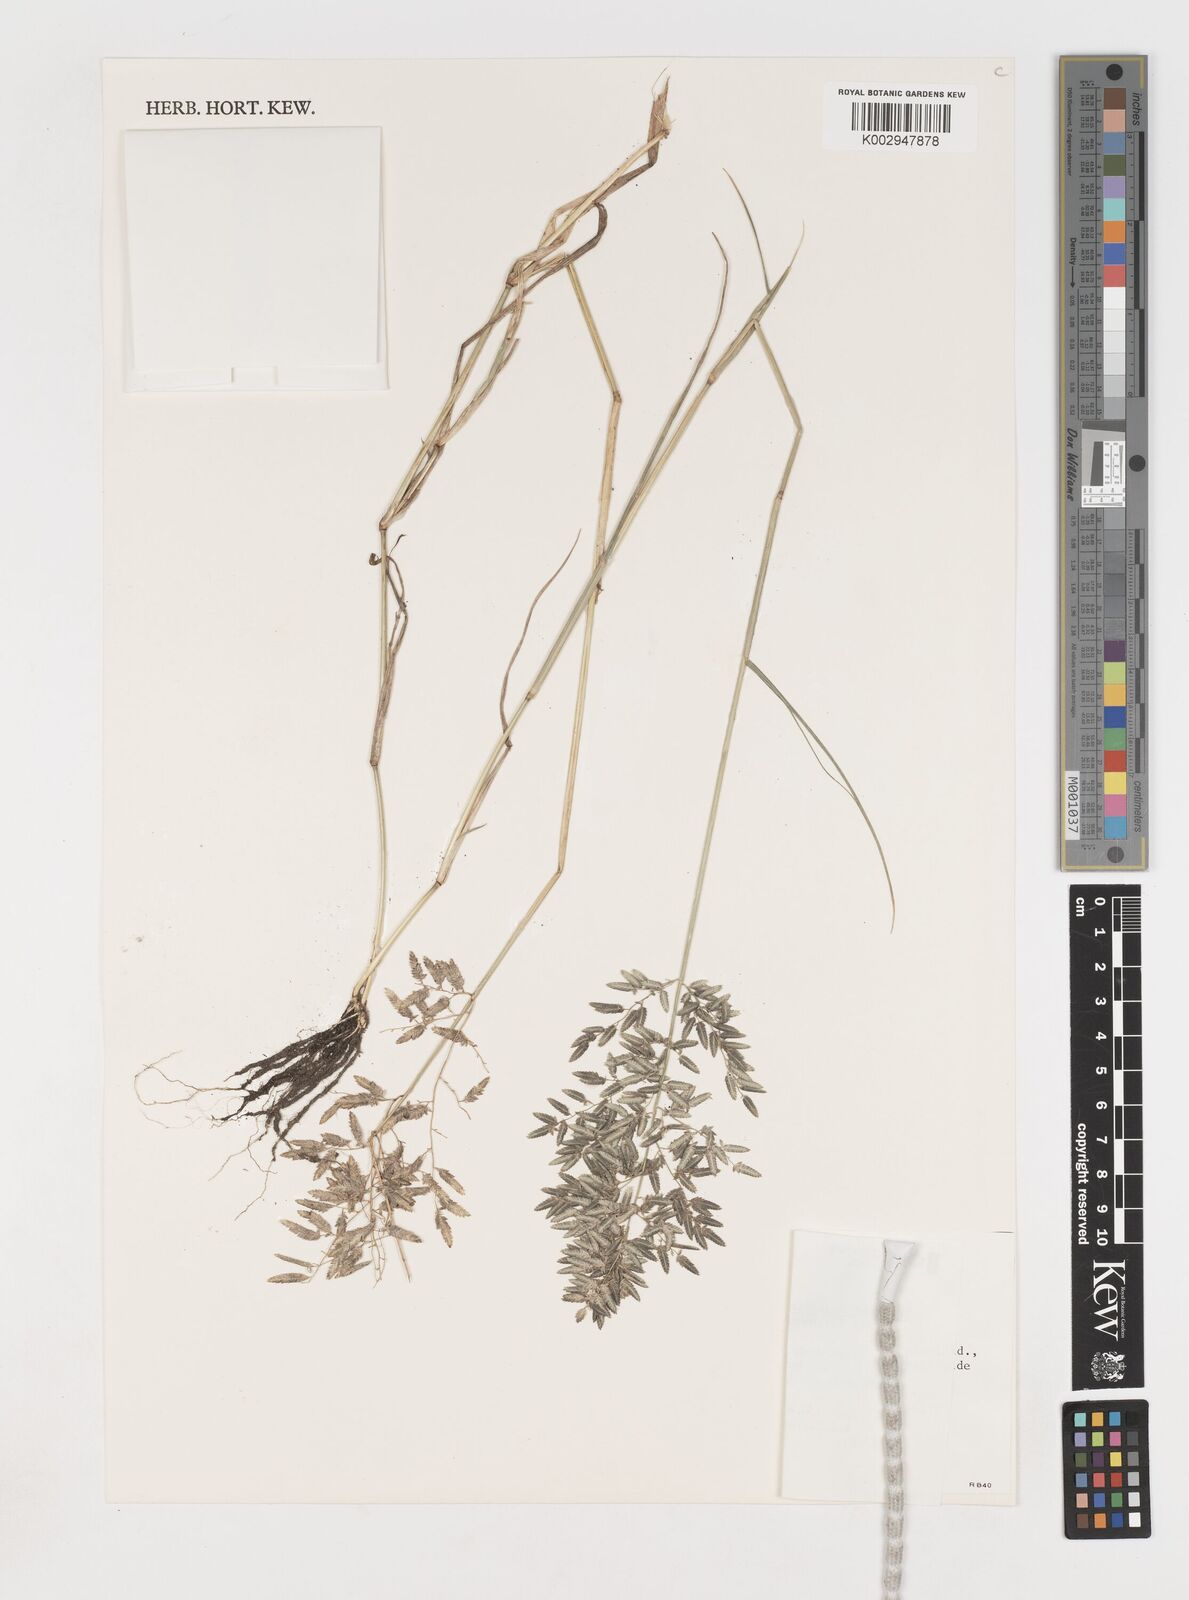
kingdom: Plantae
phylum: Tracheophyta
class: Liliopsida
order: Poales
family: Poaceae
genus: Eragrostis
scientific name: Eragrostis cilianensis
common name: Stinkgrass
